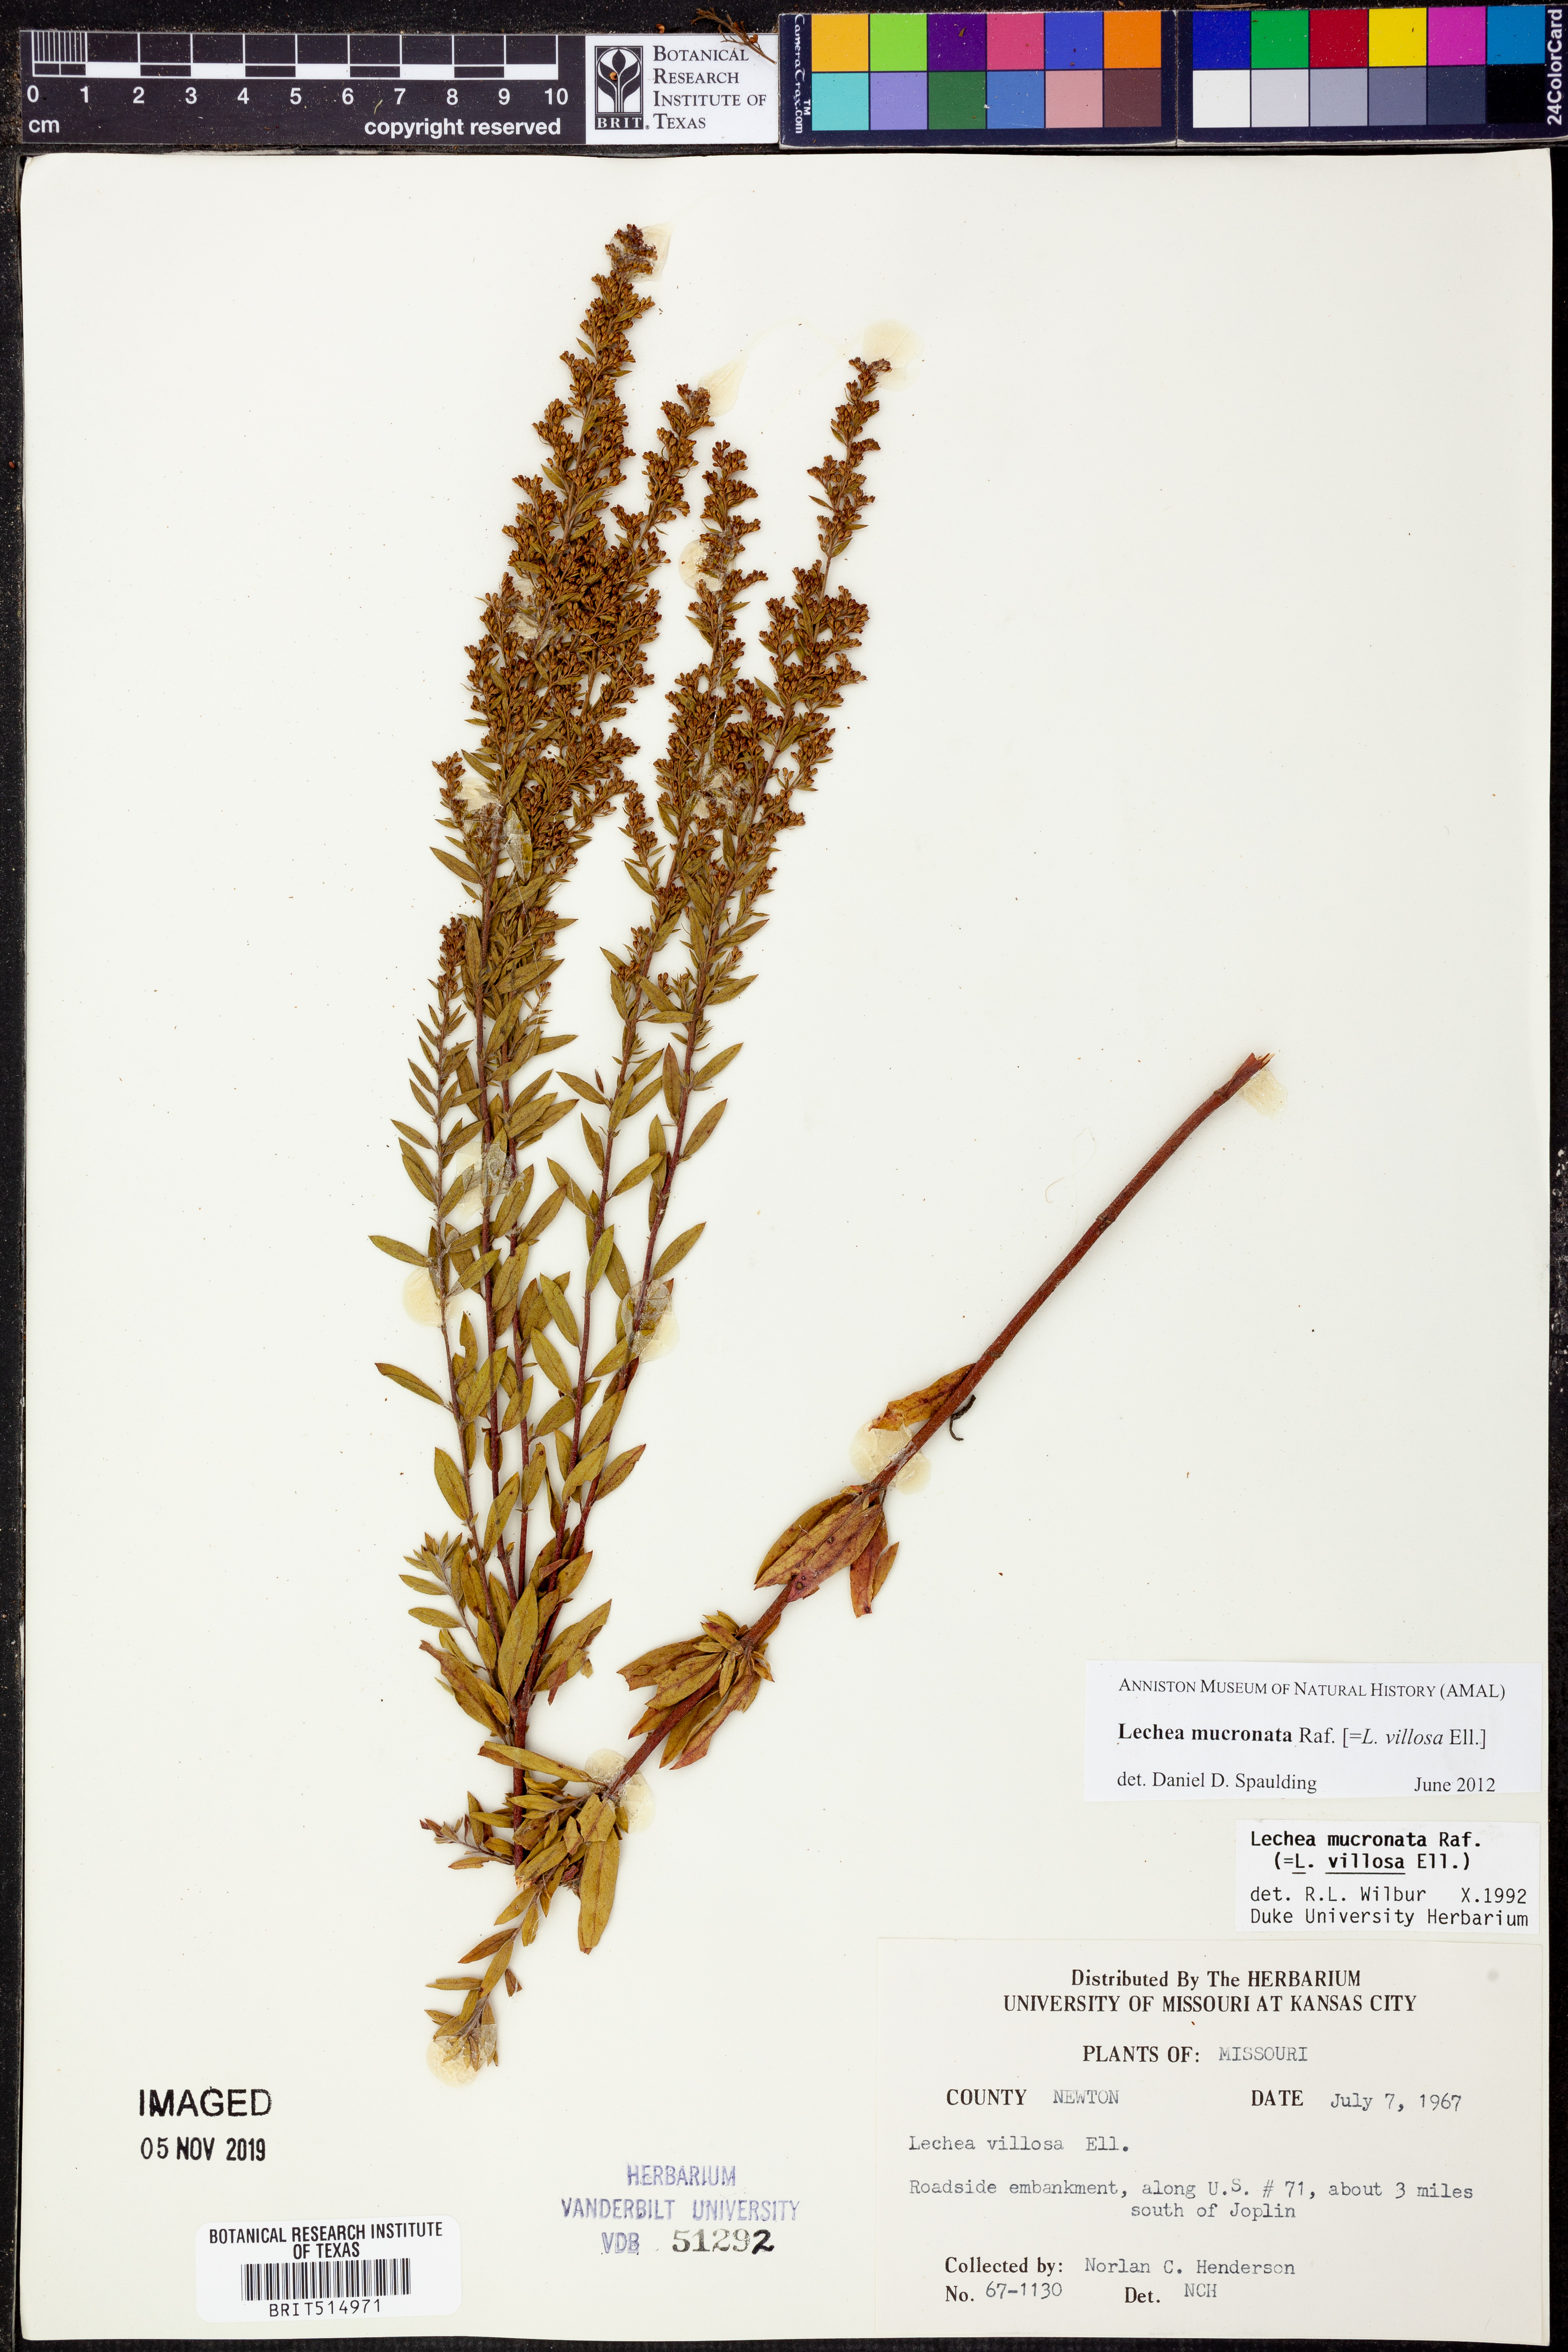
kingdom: Plantae
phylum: Tracheophyta
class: Magnoliopsida
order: Malvales
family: Cistaceae
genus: Lechea
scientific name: Lechea mucronata
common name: Hairy pinweed
